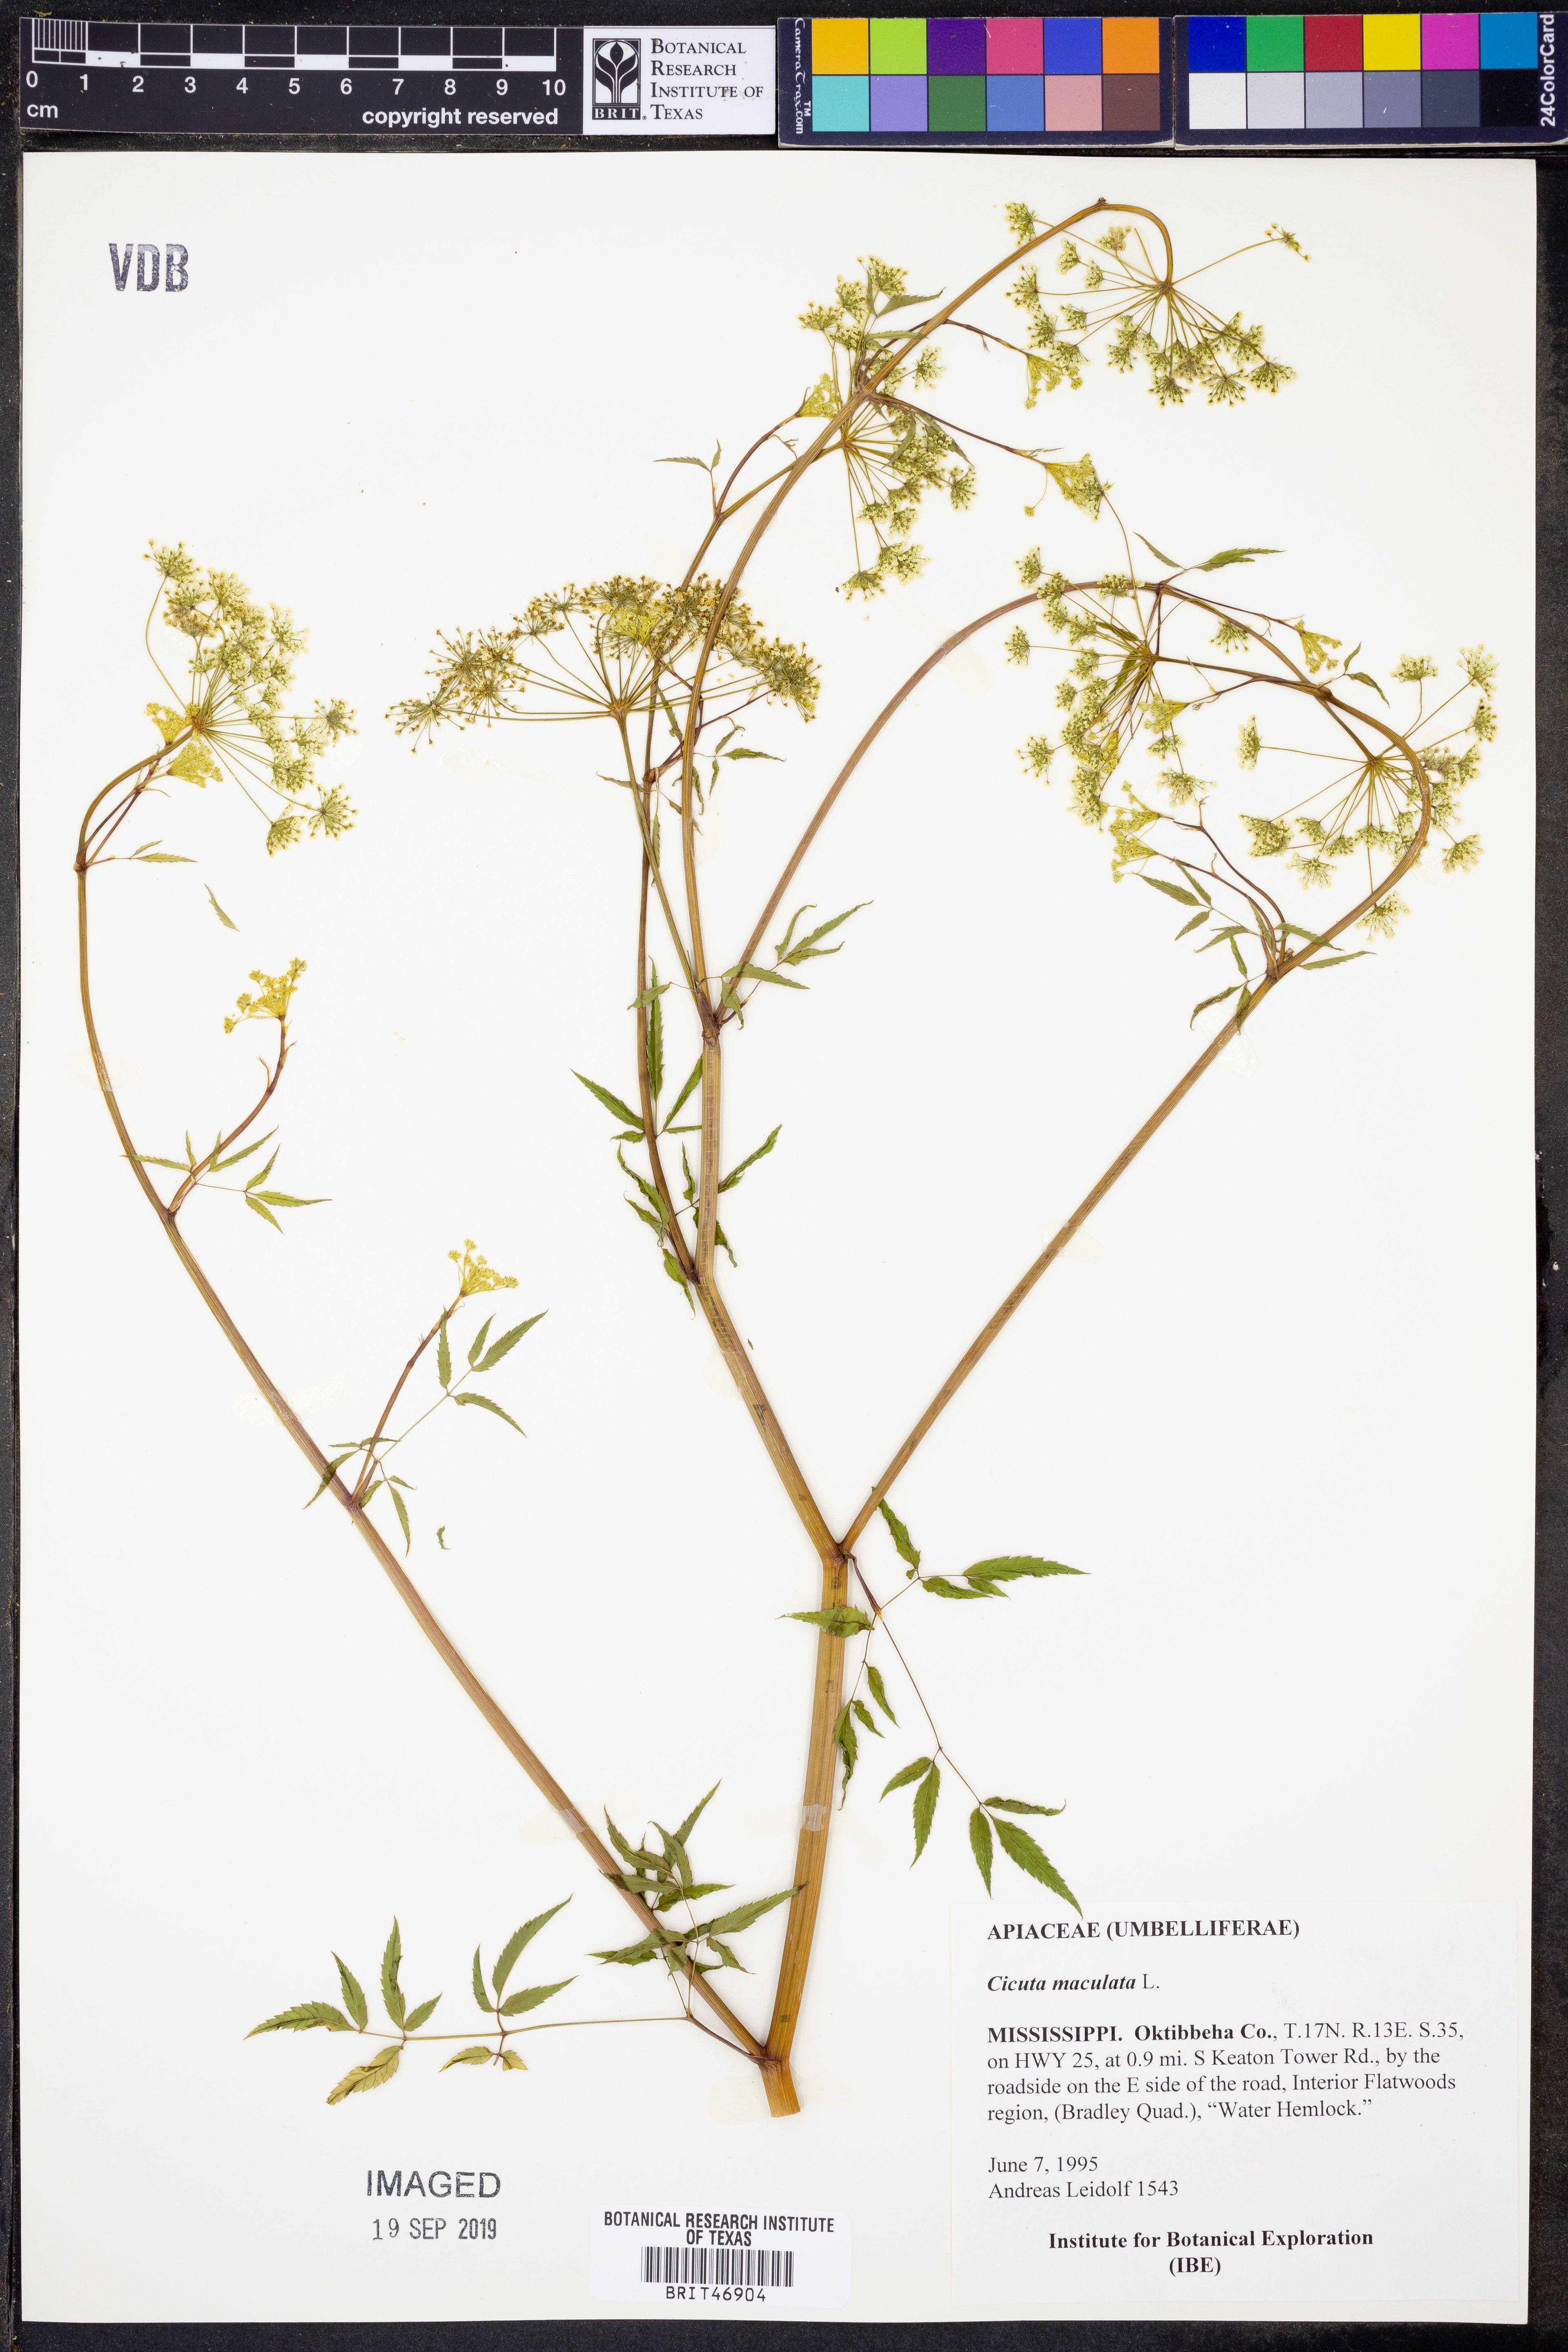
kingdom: Plantae
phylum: Tracheophyta
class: Magnoliopsida
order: Apiales
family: Apiaceae
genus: Cicuta
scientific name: Cicuta maculata
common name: Spotted cowbane
